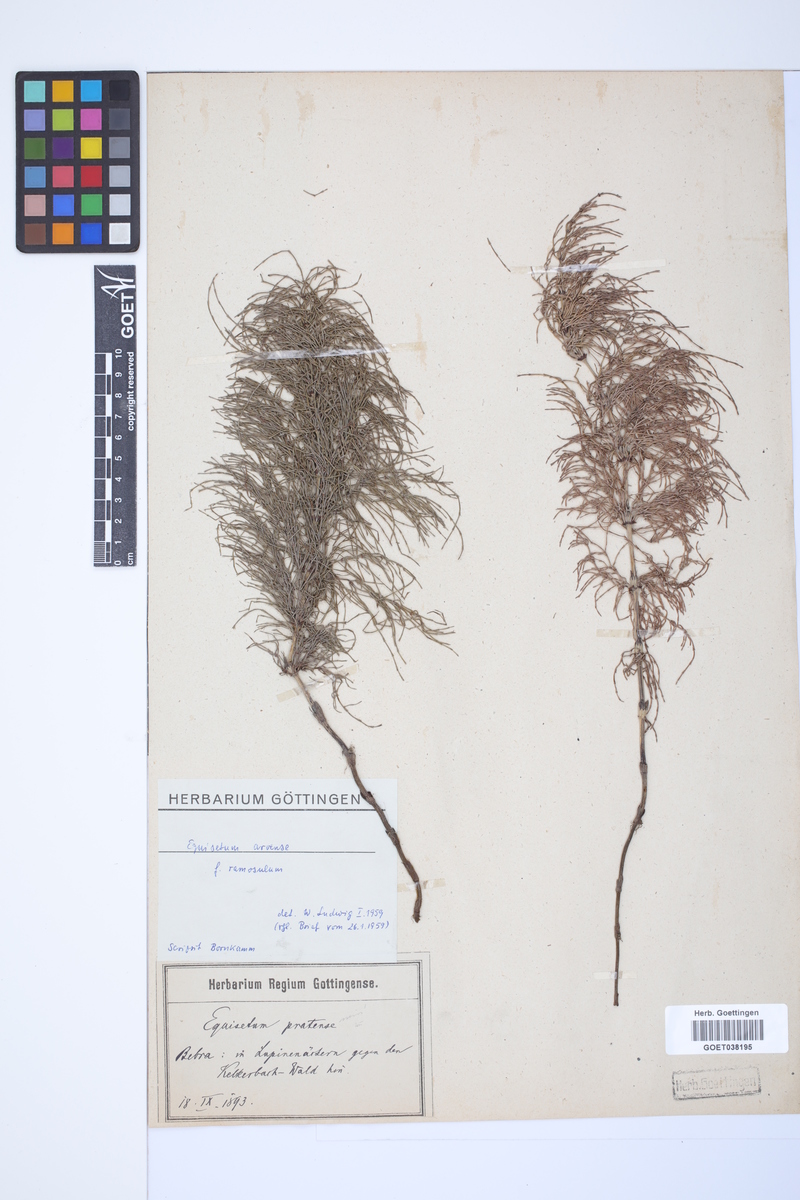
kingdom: Plantae
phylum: Tracheophyta
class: Polypodiopsida
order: Equisetales
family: Equisetaceae
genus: Equisetum
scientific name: Equisetum arvense
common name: Field horsetail
